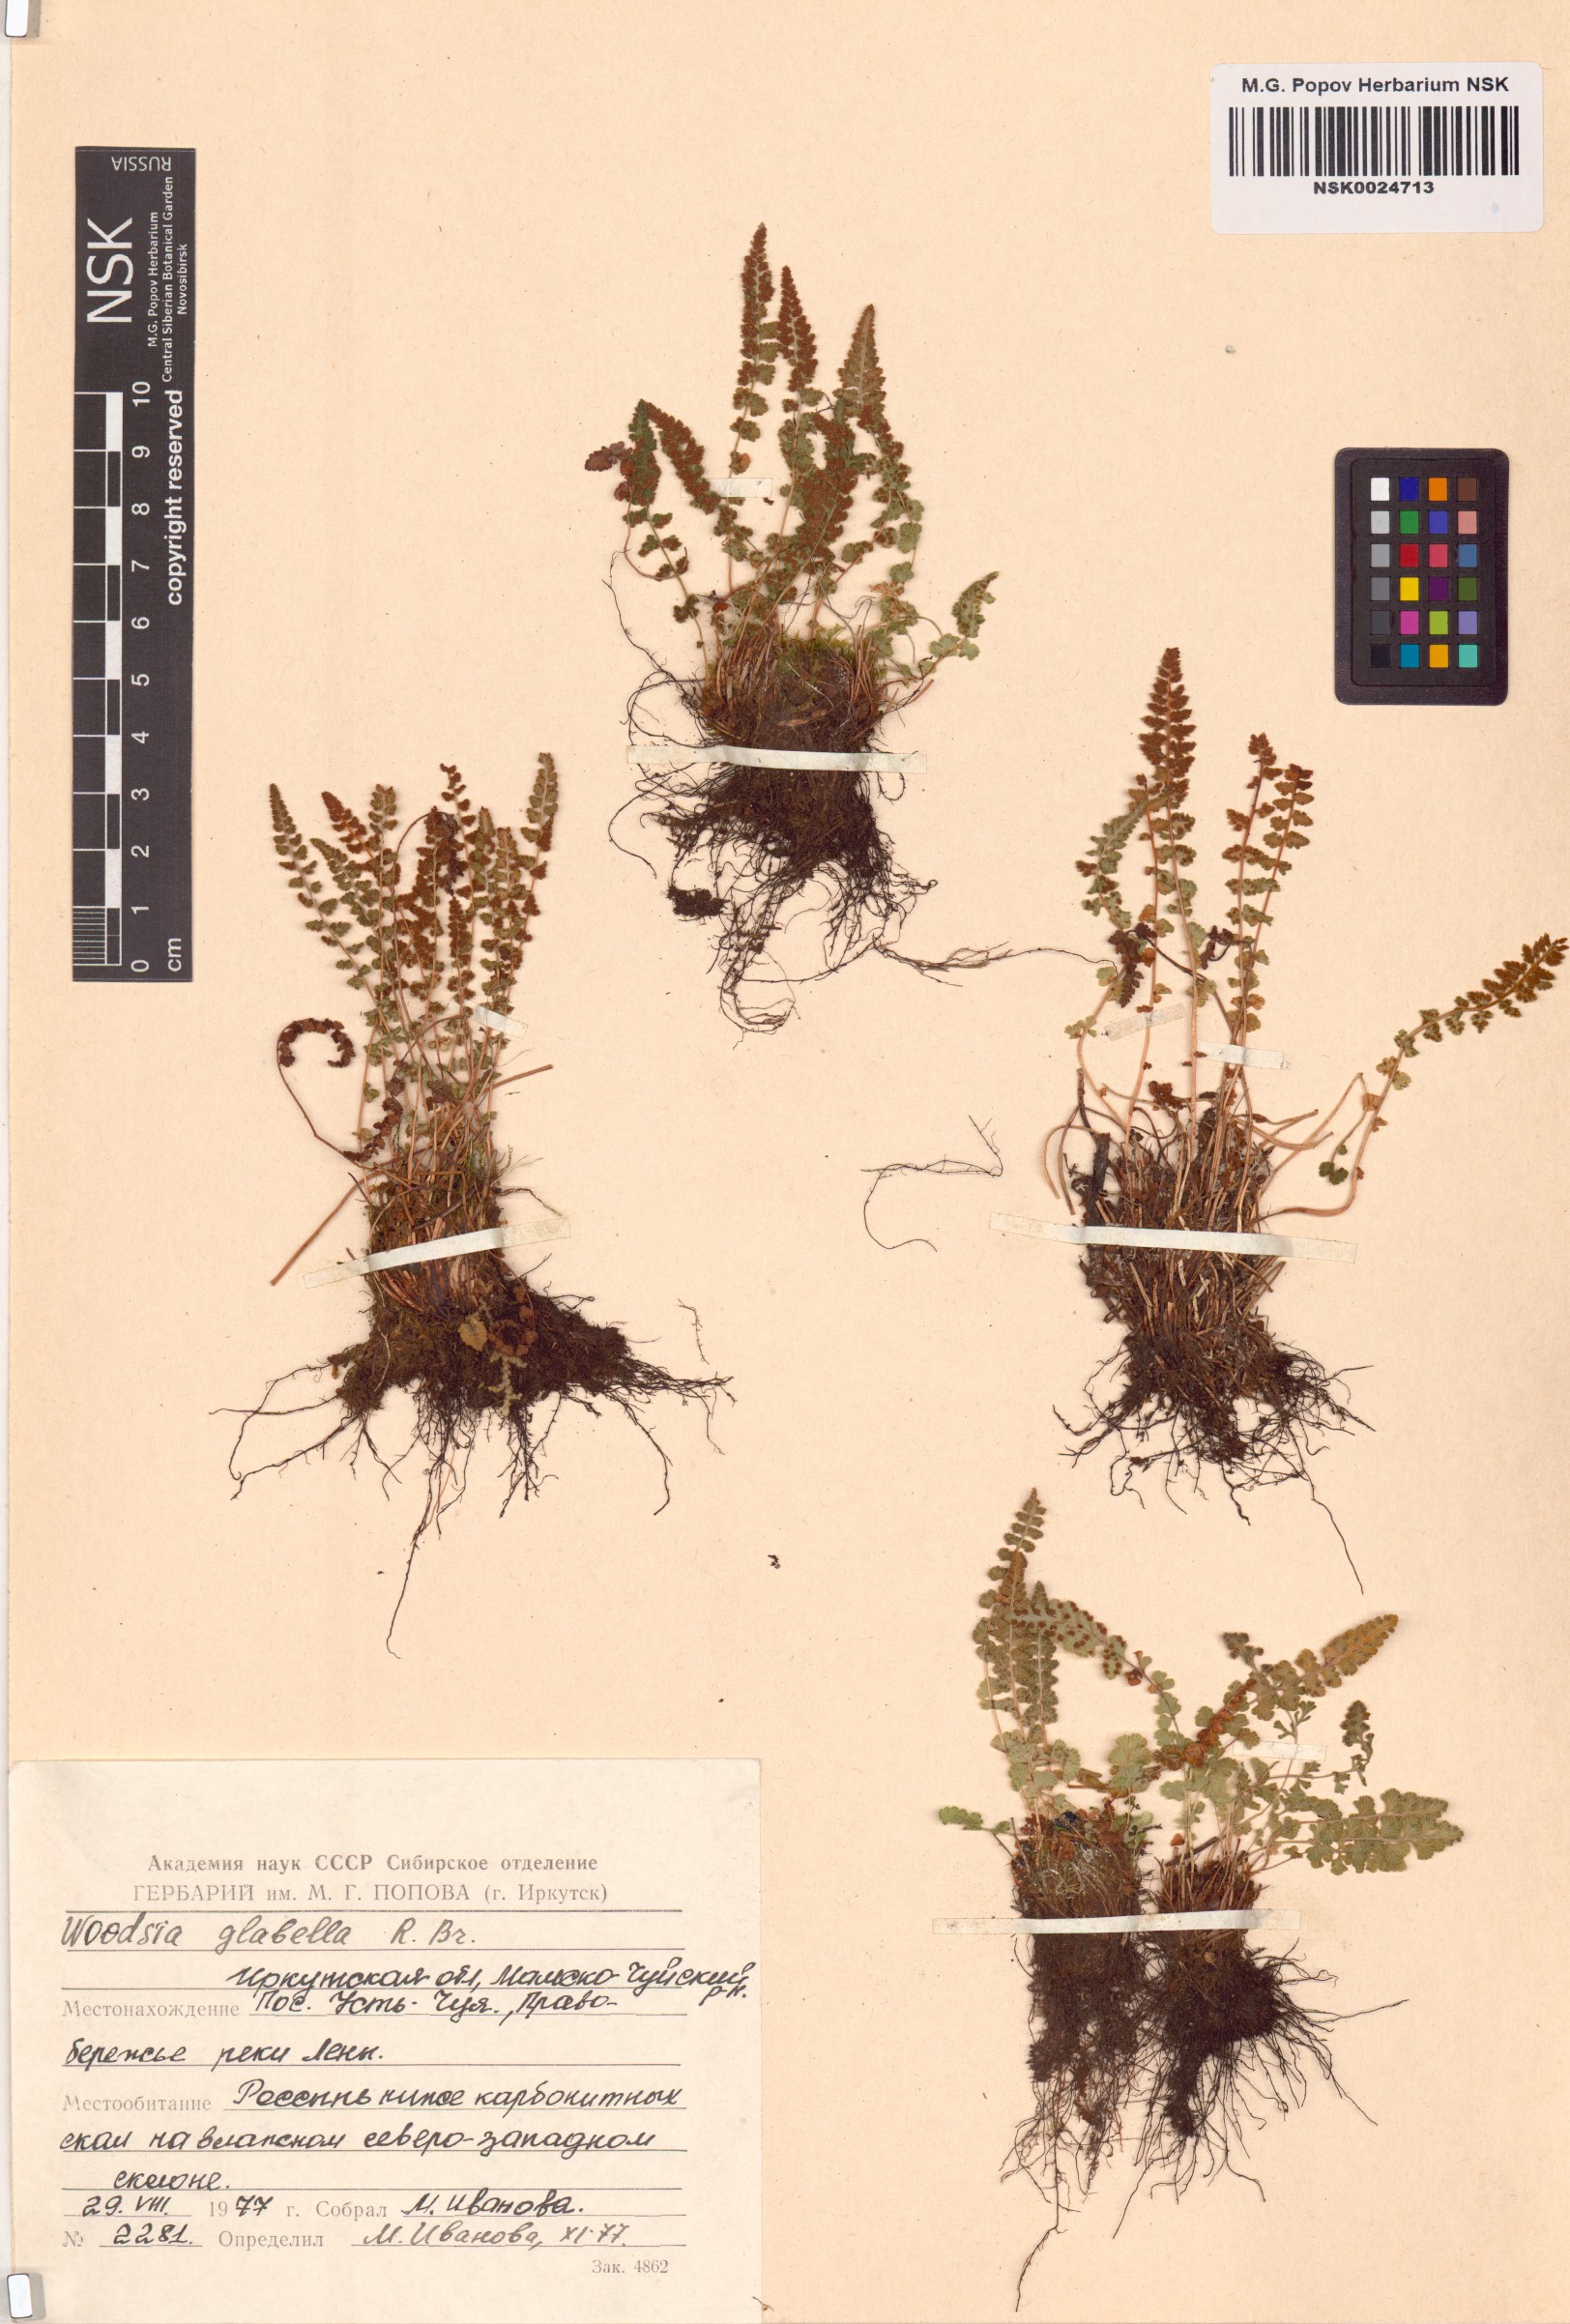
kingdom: Plantae
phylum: Tracheophyta
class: Polypodiopsida
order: Polypodiales
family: Woodsiaceae
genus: Woodsia
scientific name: Woodsia glabella
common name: Smooth woodsia
